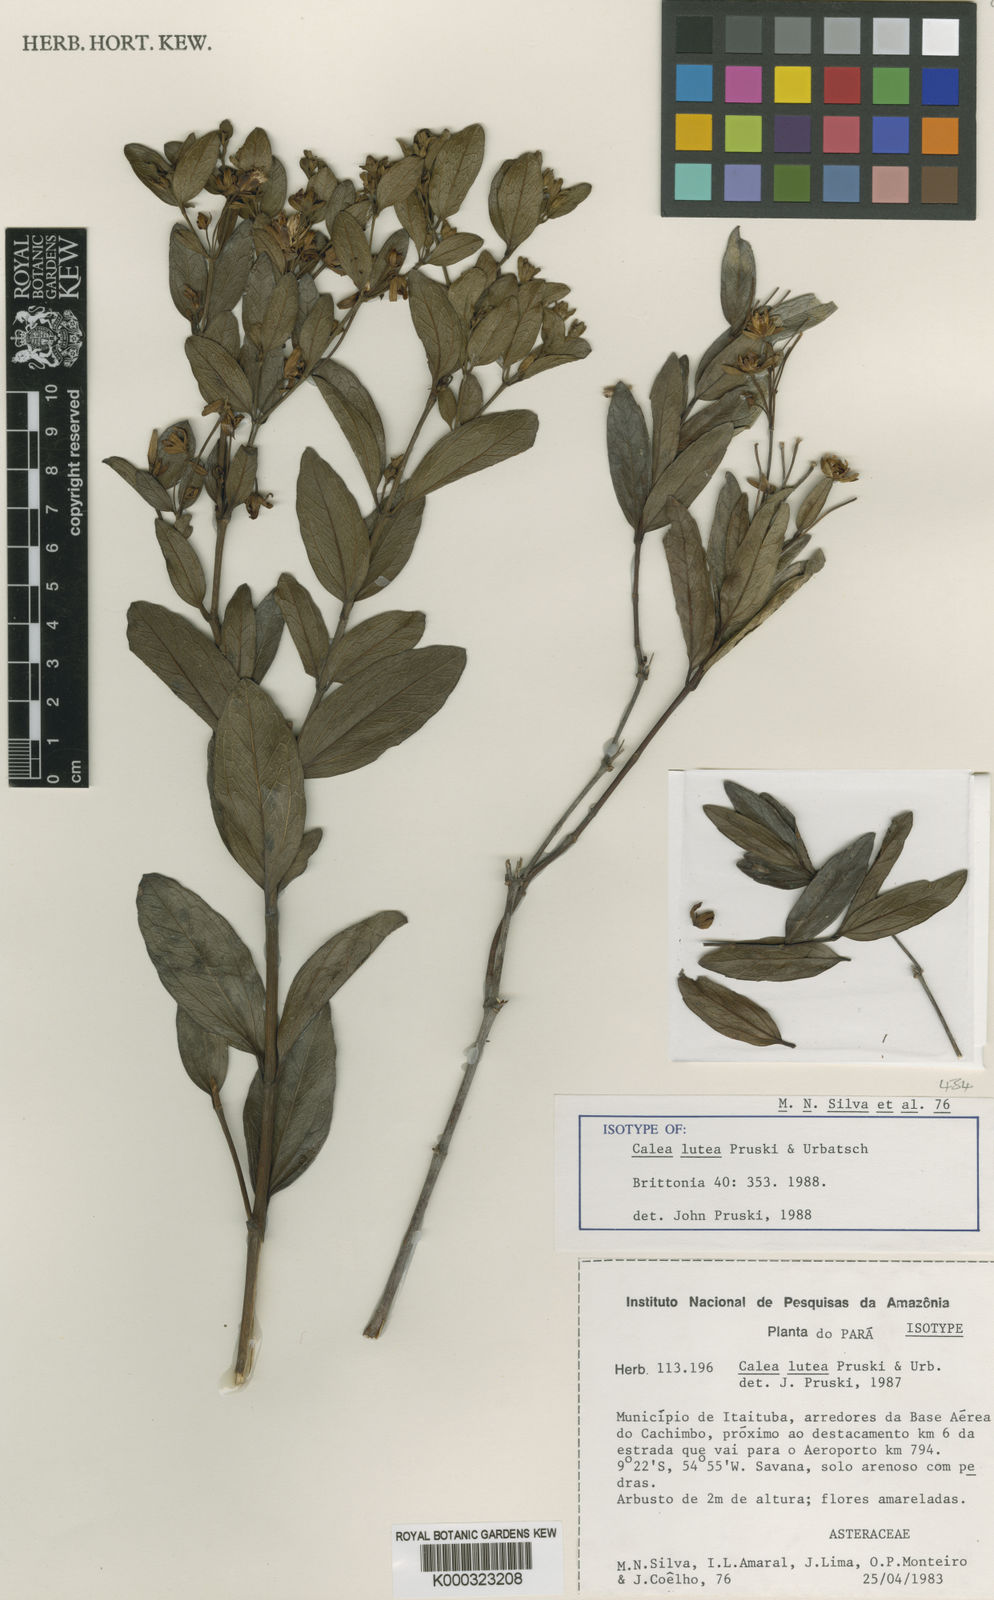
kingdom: Plantae
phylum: Tracheophyta
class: Magnoliopsida
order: Asterales
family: Asteraceae
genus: Calea
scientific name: Calea lutea
